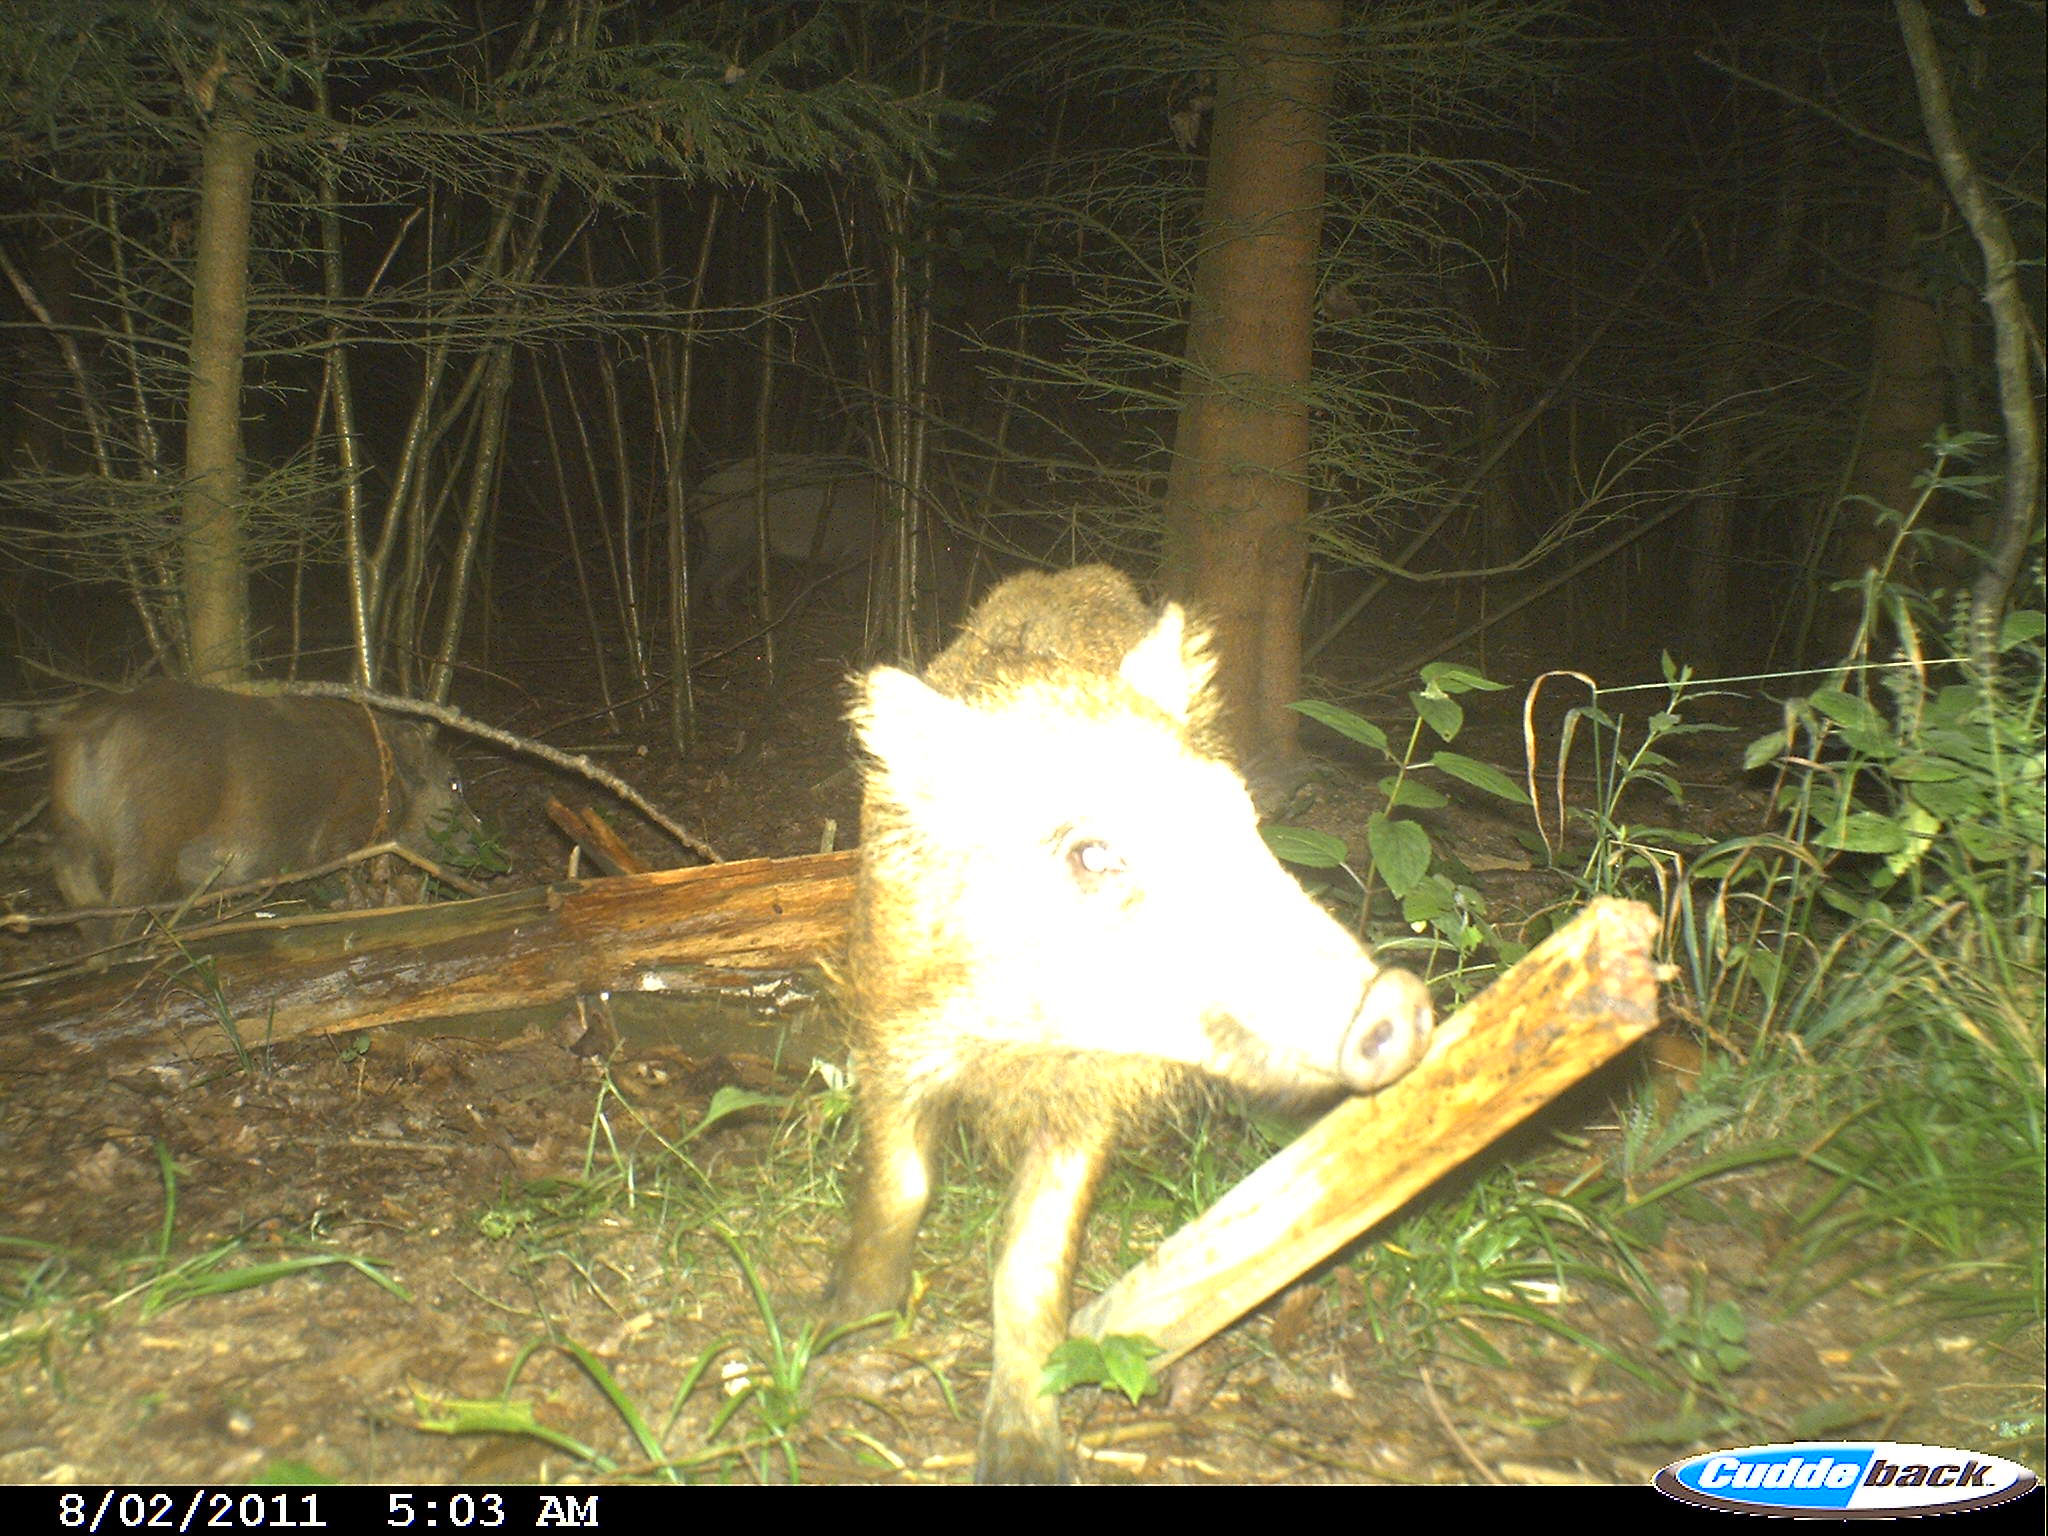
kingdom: Animalia
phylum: Chordata
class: Mammalia
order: Artiodactyla
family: Suidae
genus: Sus
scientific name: Sus scrofa
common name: Wild boar
